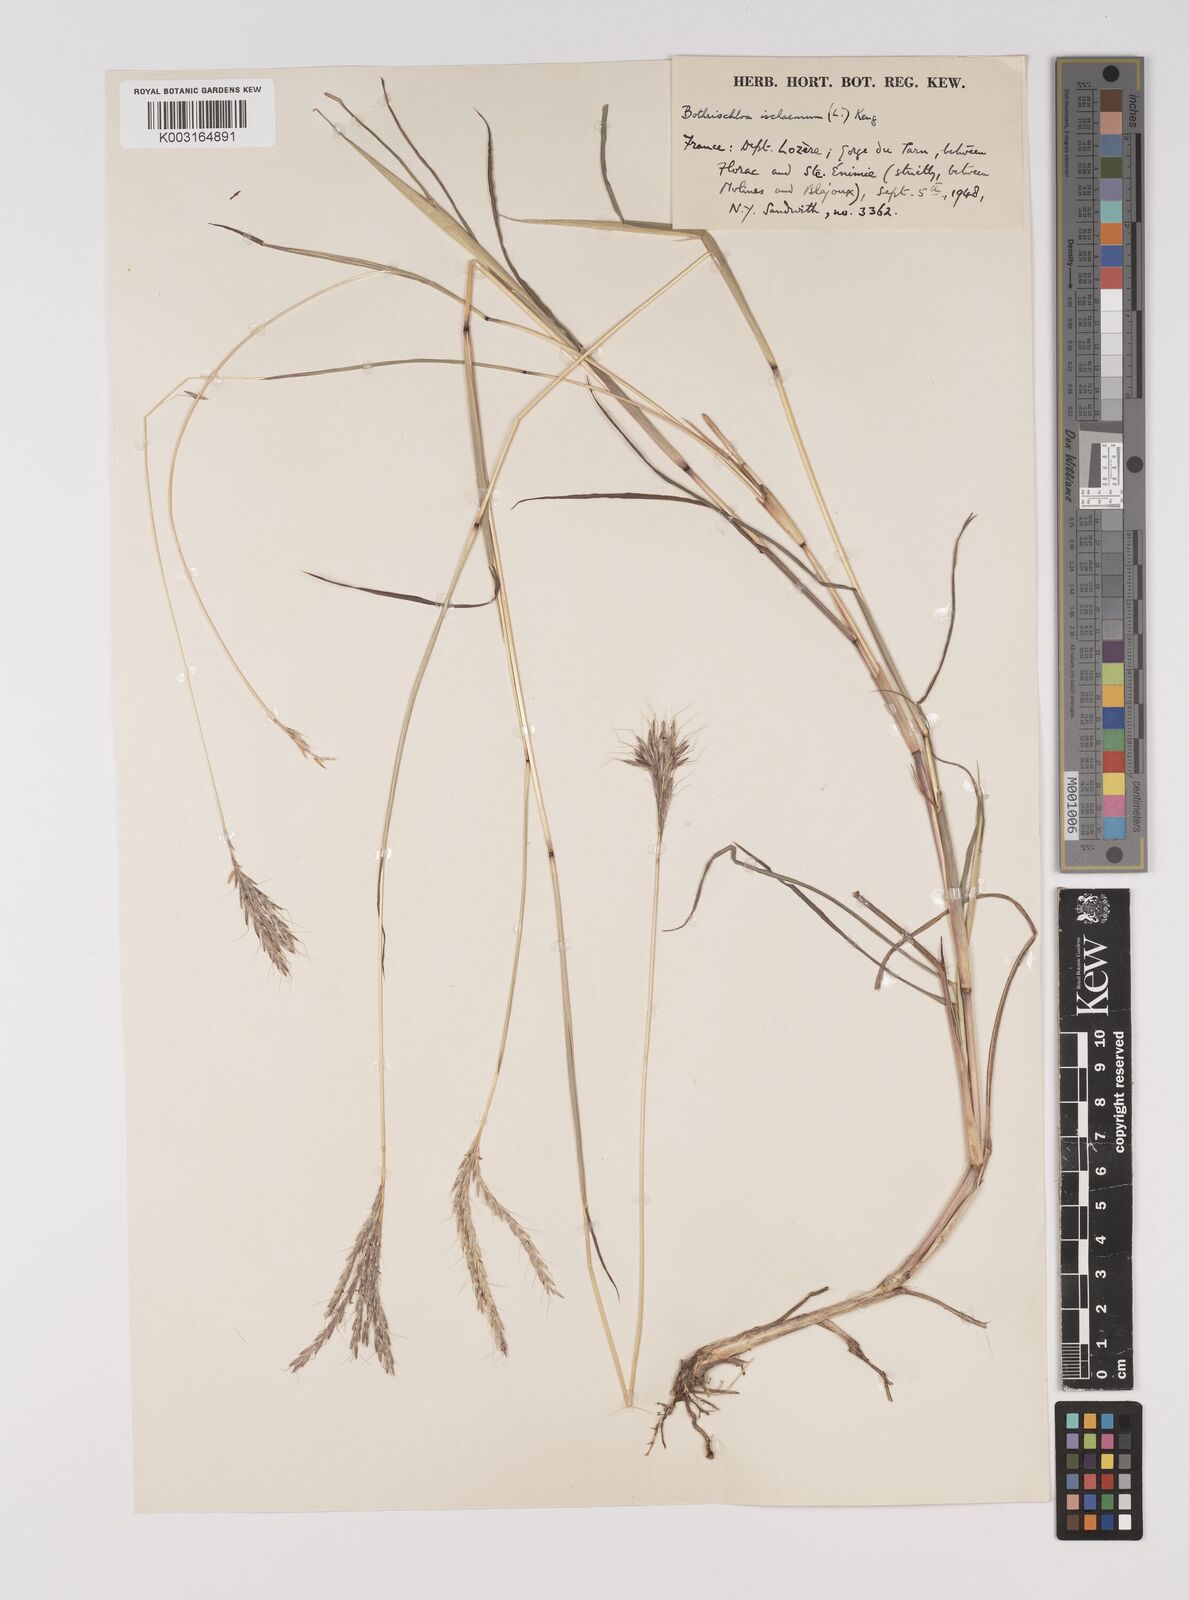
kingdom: Plantae
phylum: Tracheophyta
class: Liliopsida
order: Poales
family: Poaceae
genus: Bothriochloa
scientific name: Bothriochloa ischaemum
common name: Yellow bluestem
